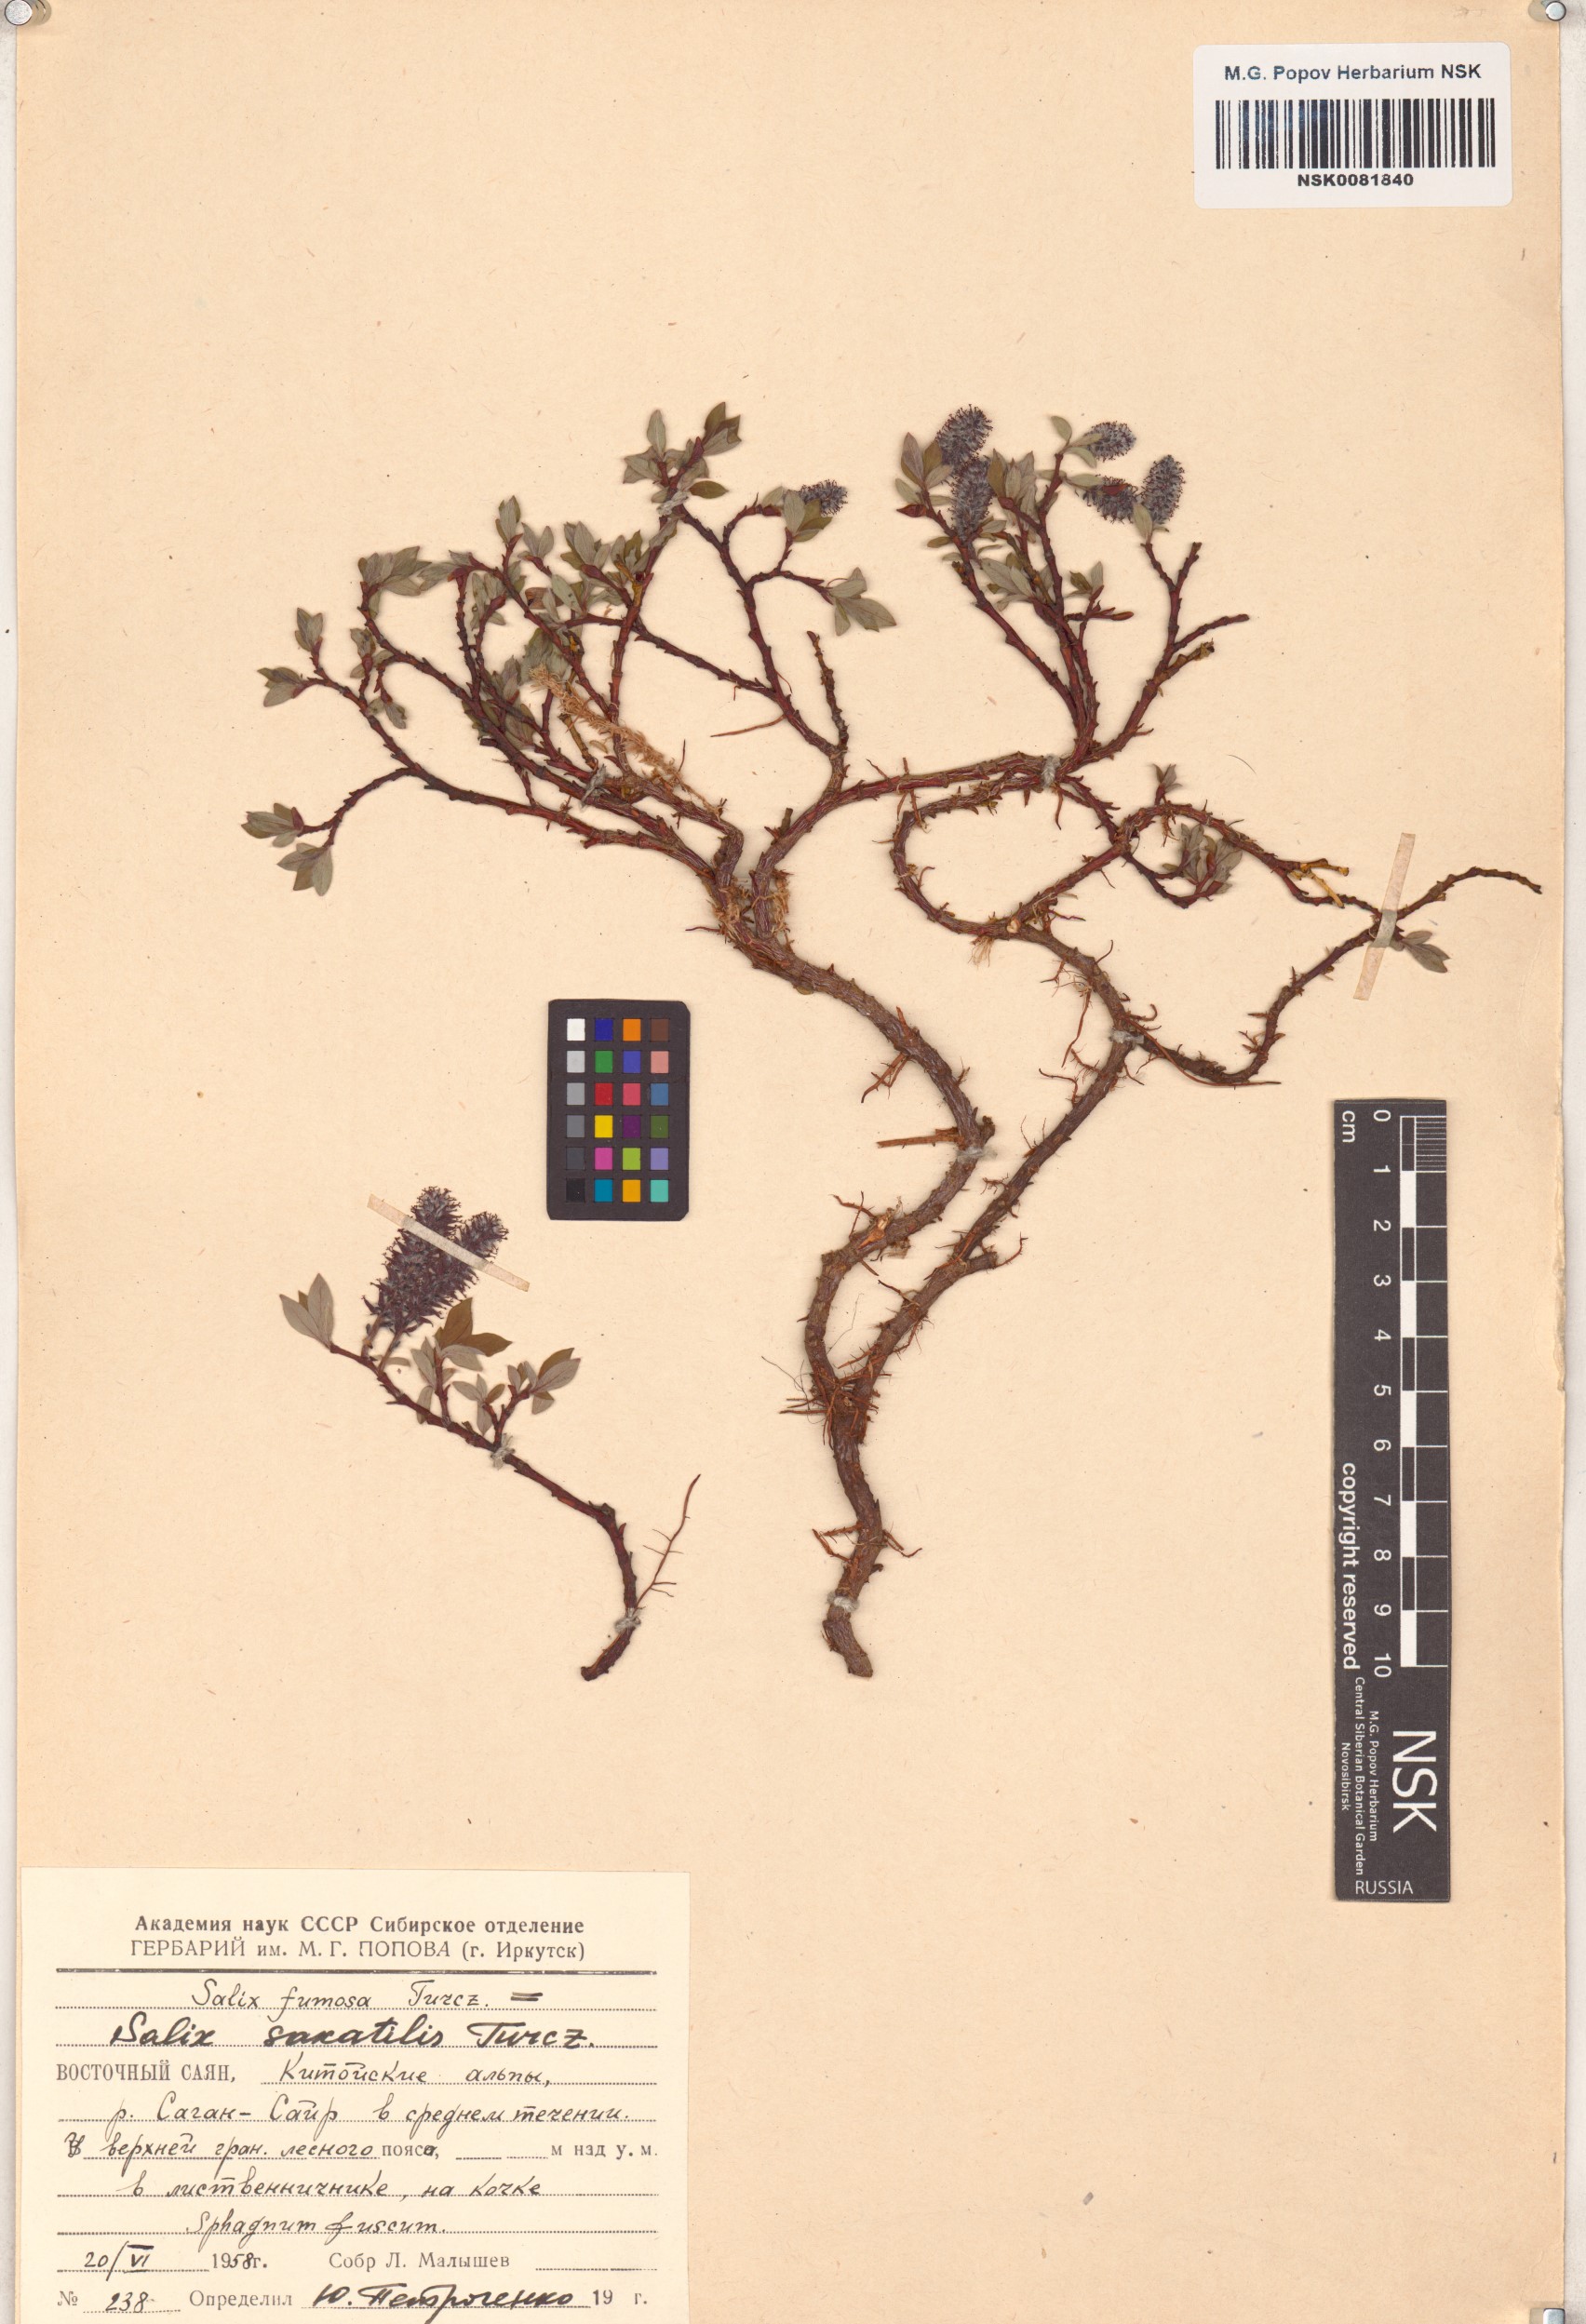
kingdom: Plantae
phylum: Tracheophyta
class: Magnoliopsida
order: Malpighiales
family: Salicaceae
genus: Salix
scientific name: Salix saxatilis
